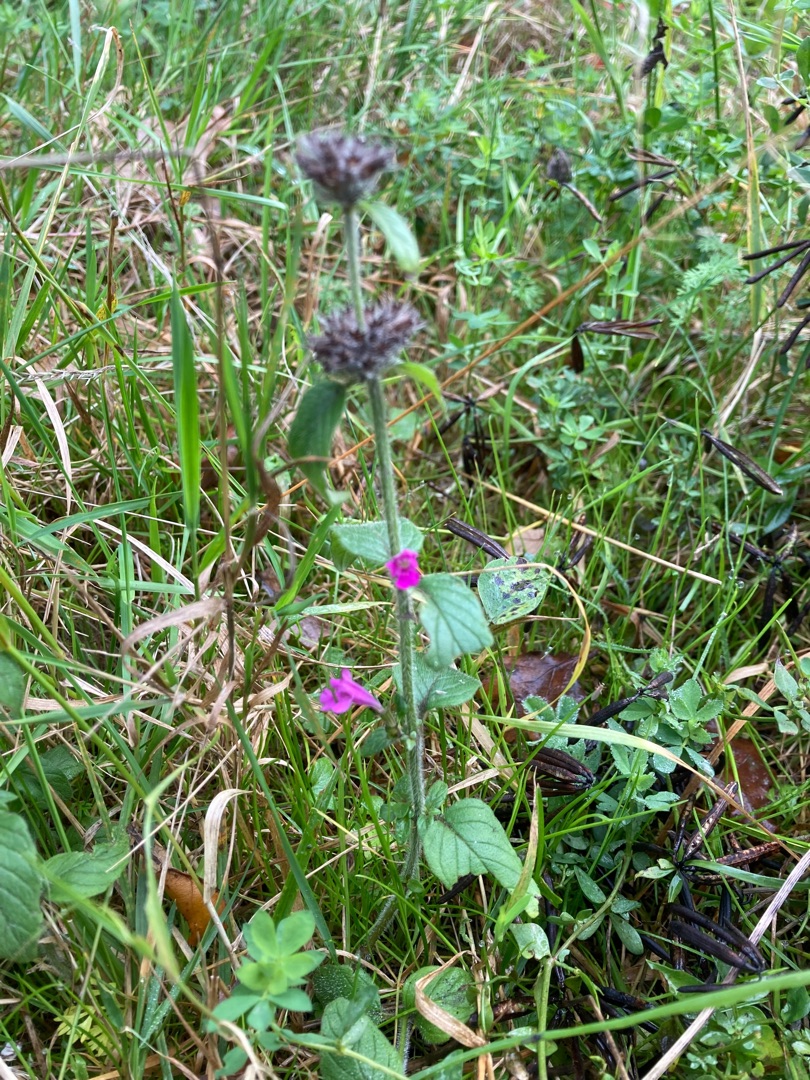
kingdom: Plantae
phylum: Tracheophyta
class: Magnoliopsida
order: Lamiales
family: Lamiaceae
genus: Clinopodium
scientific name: Clinopodium vulgare
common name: Kransbørste
